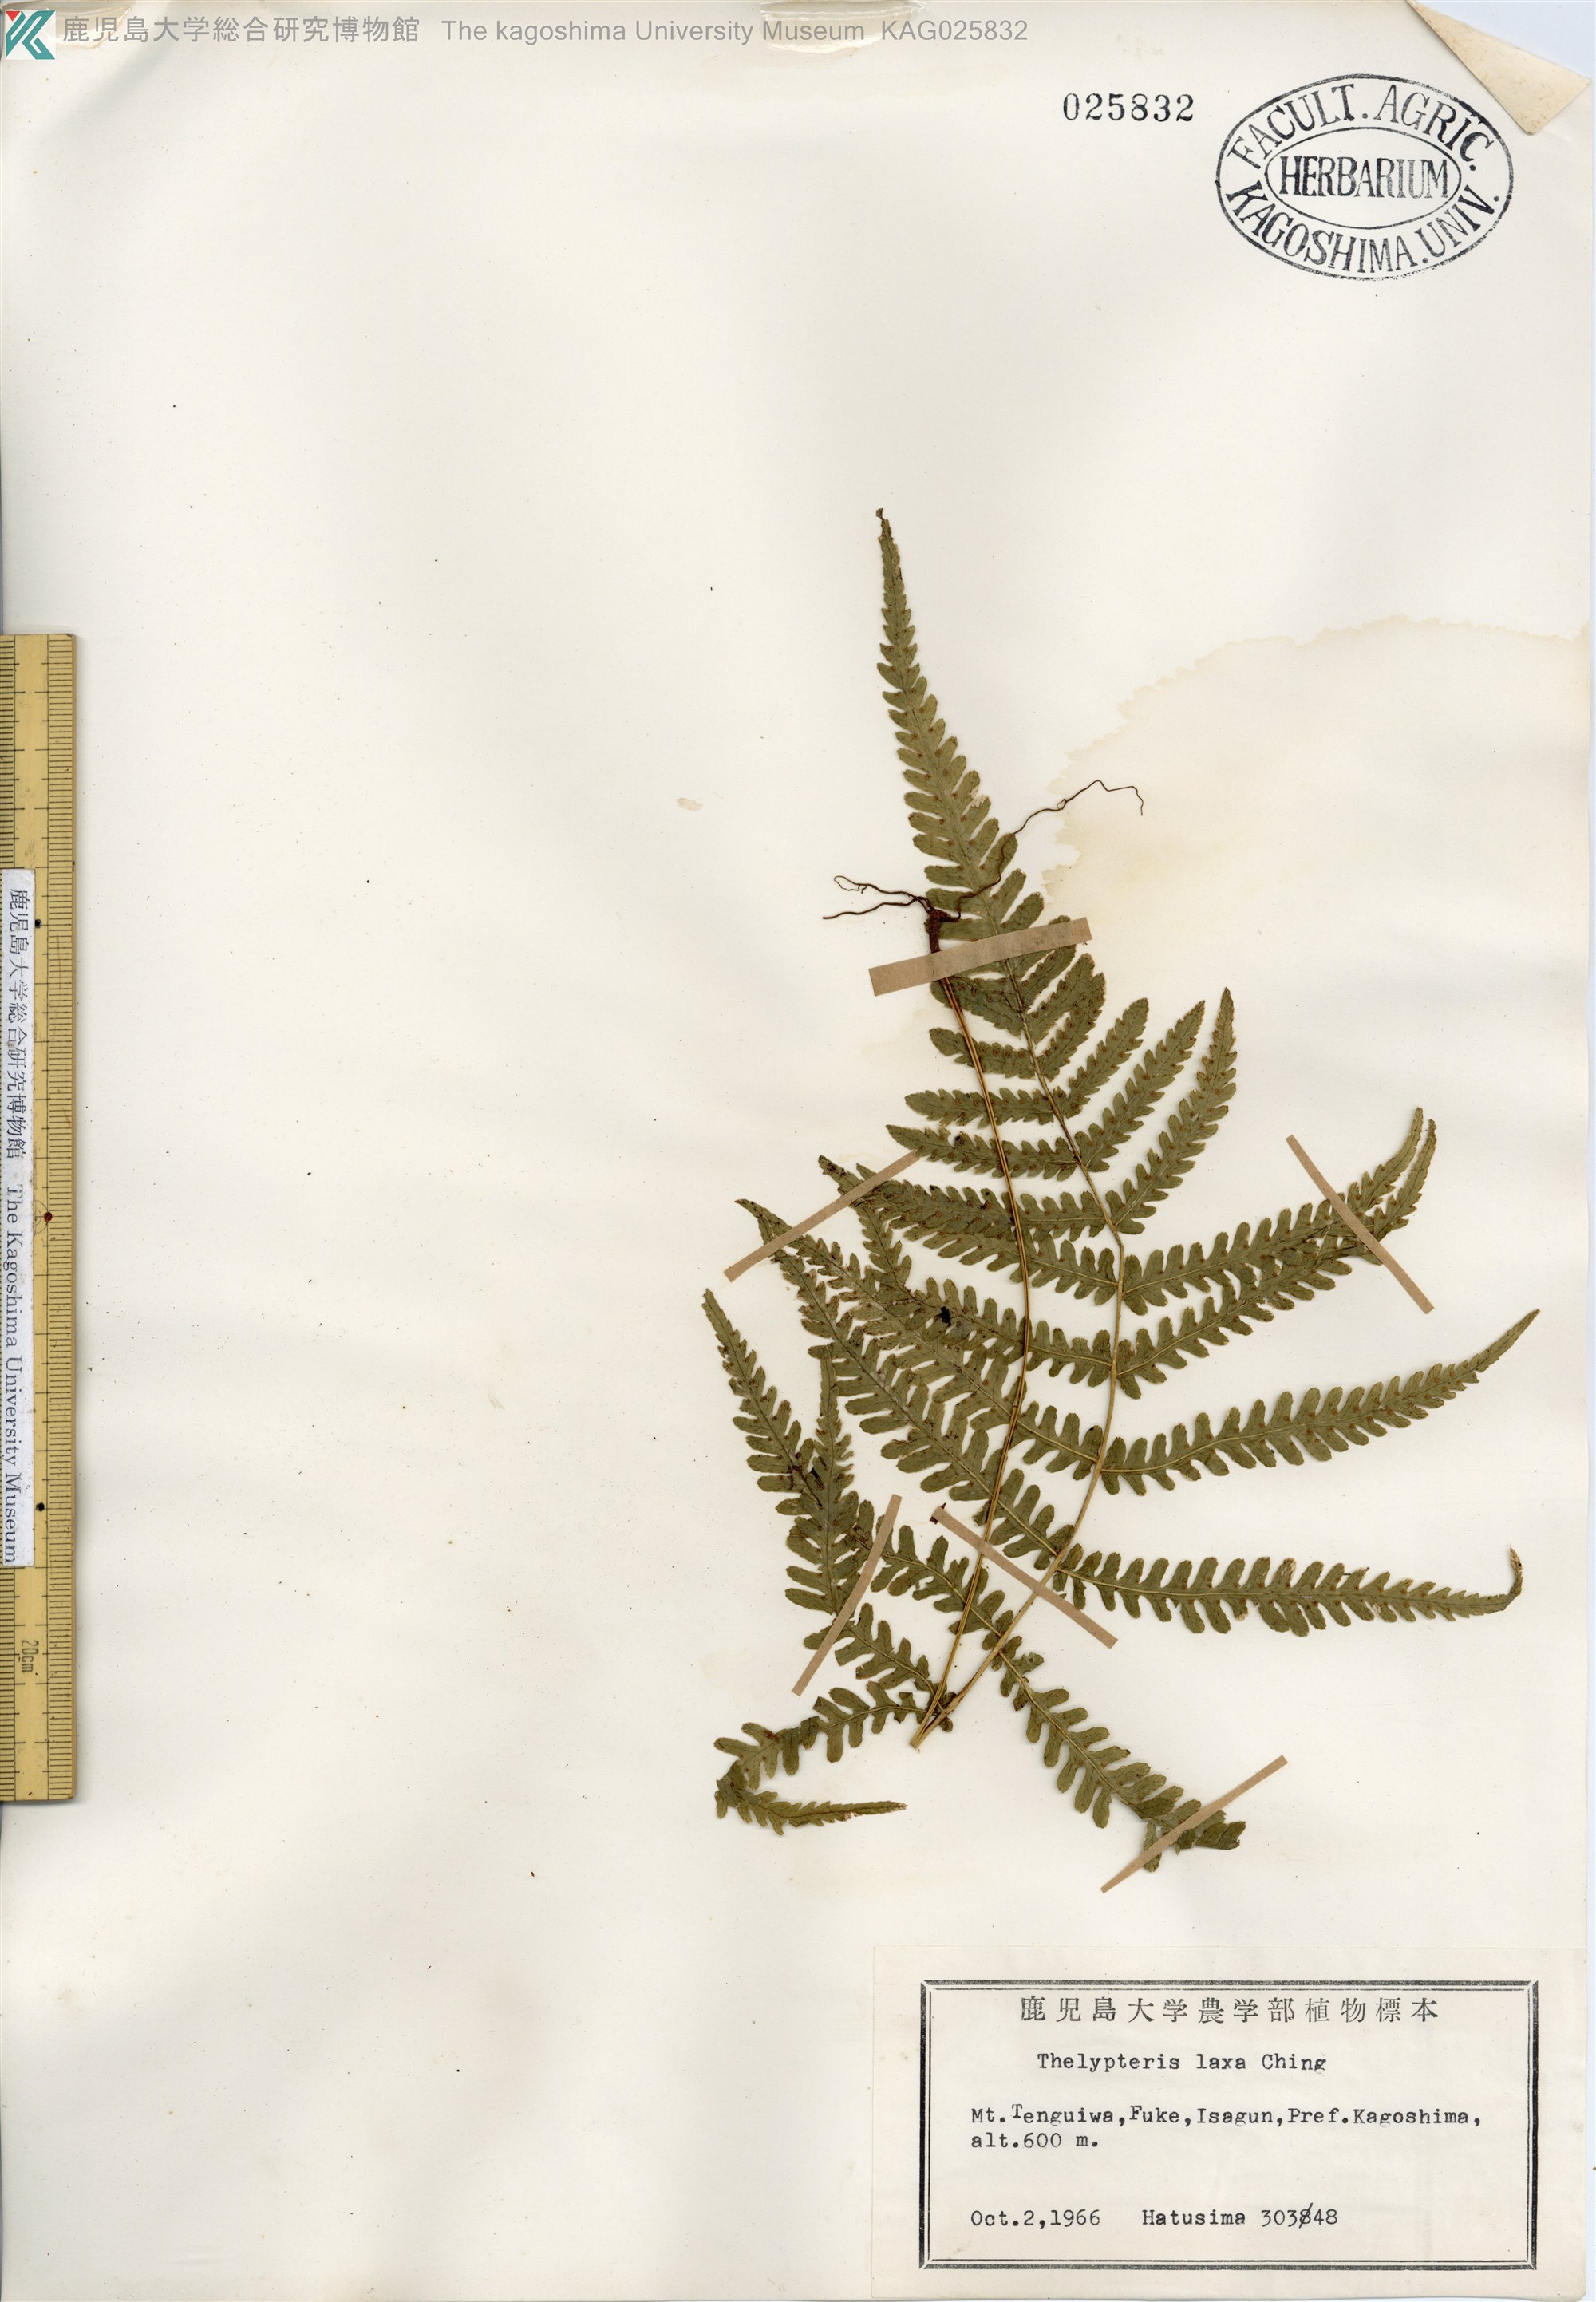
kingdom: Plantae
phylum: Tracheophyta
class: Polypodiopsida
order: Polypodiales
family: Thelypteridaceae
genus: Metathelypteris
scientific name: Metathelypteris laxa
